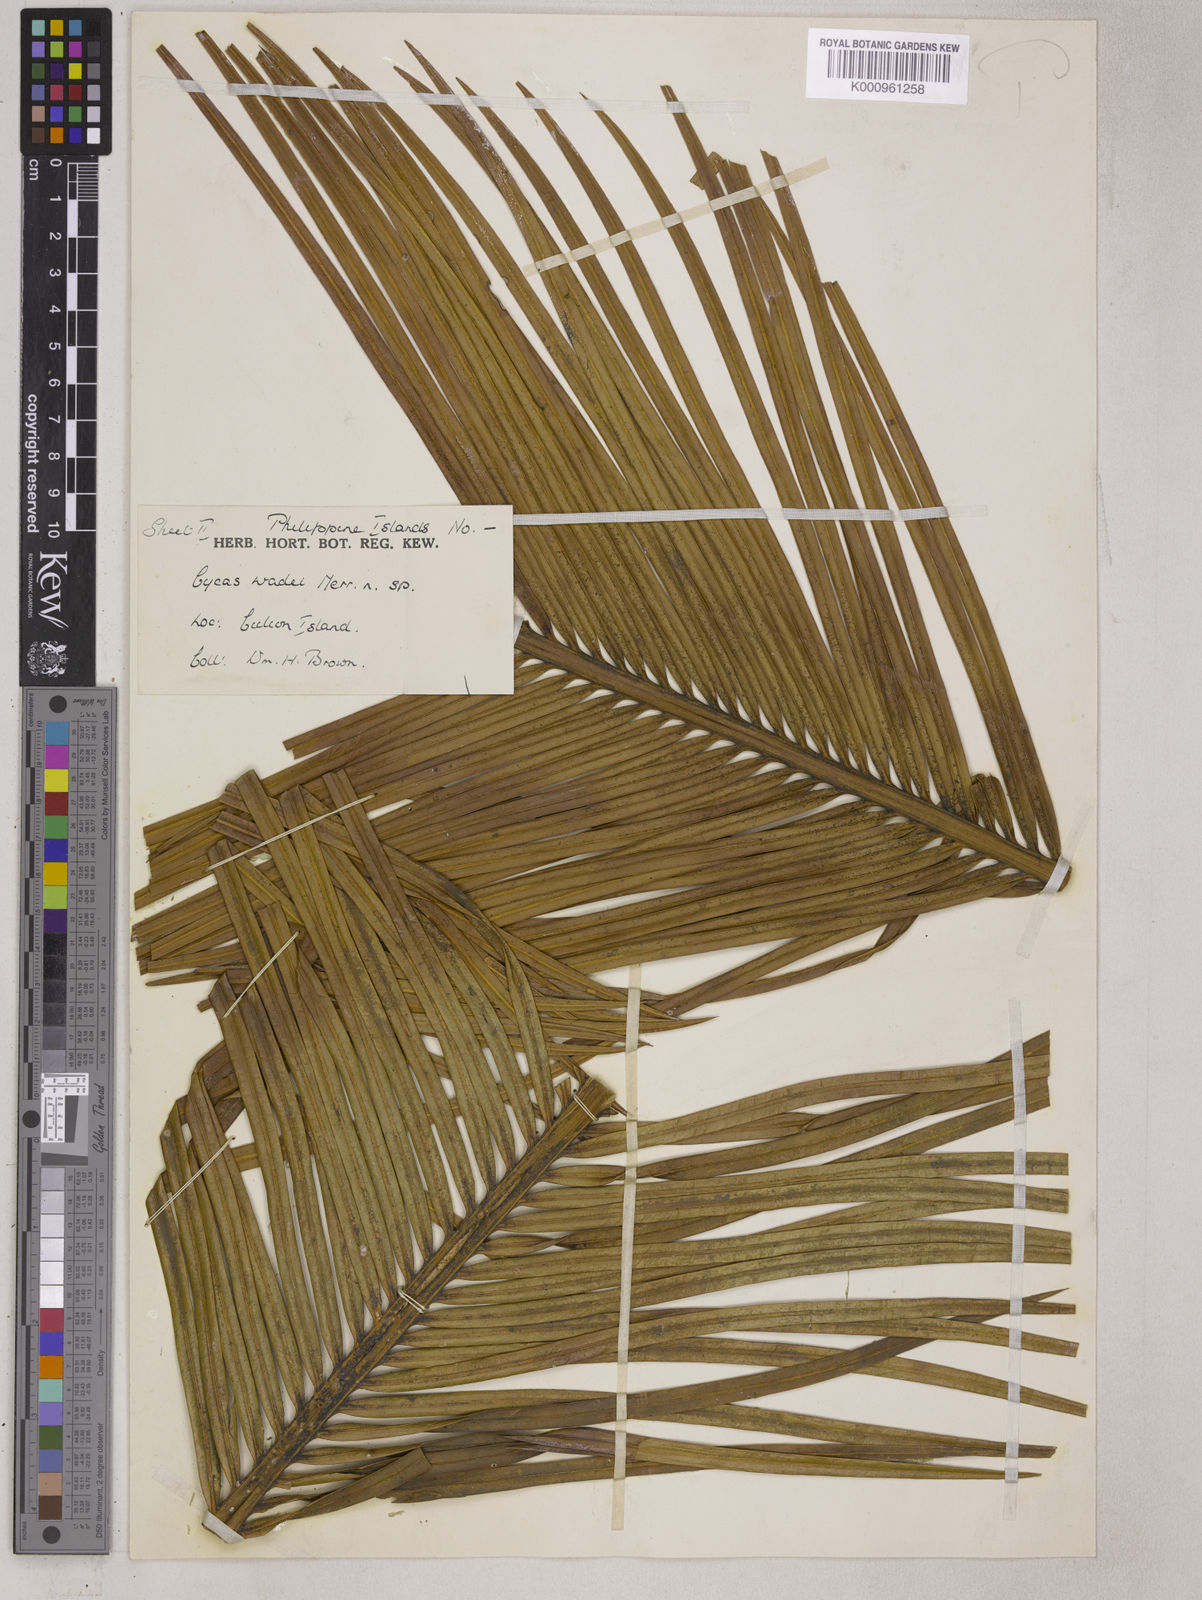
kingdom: Plantae
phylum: Tracheophyta
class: Cycadopsida
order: Cycadales
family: Cycadaceae
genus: Cycas
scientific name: Cycas wadei
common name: Wade’s pitogo
